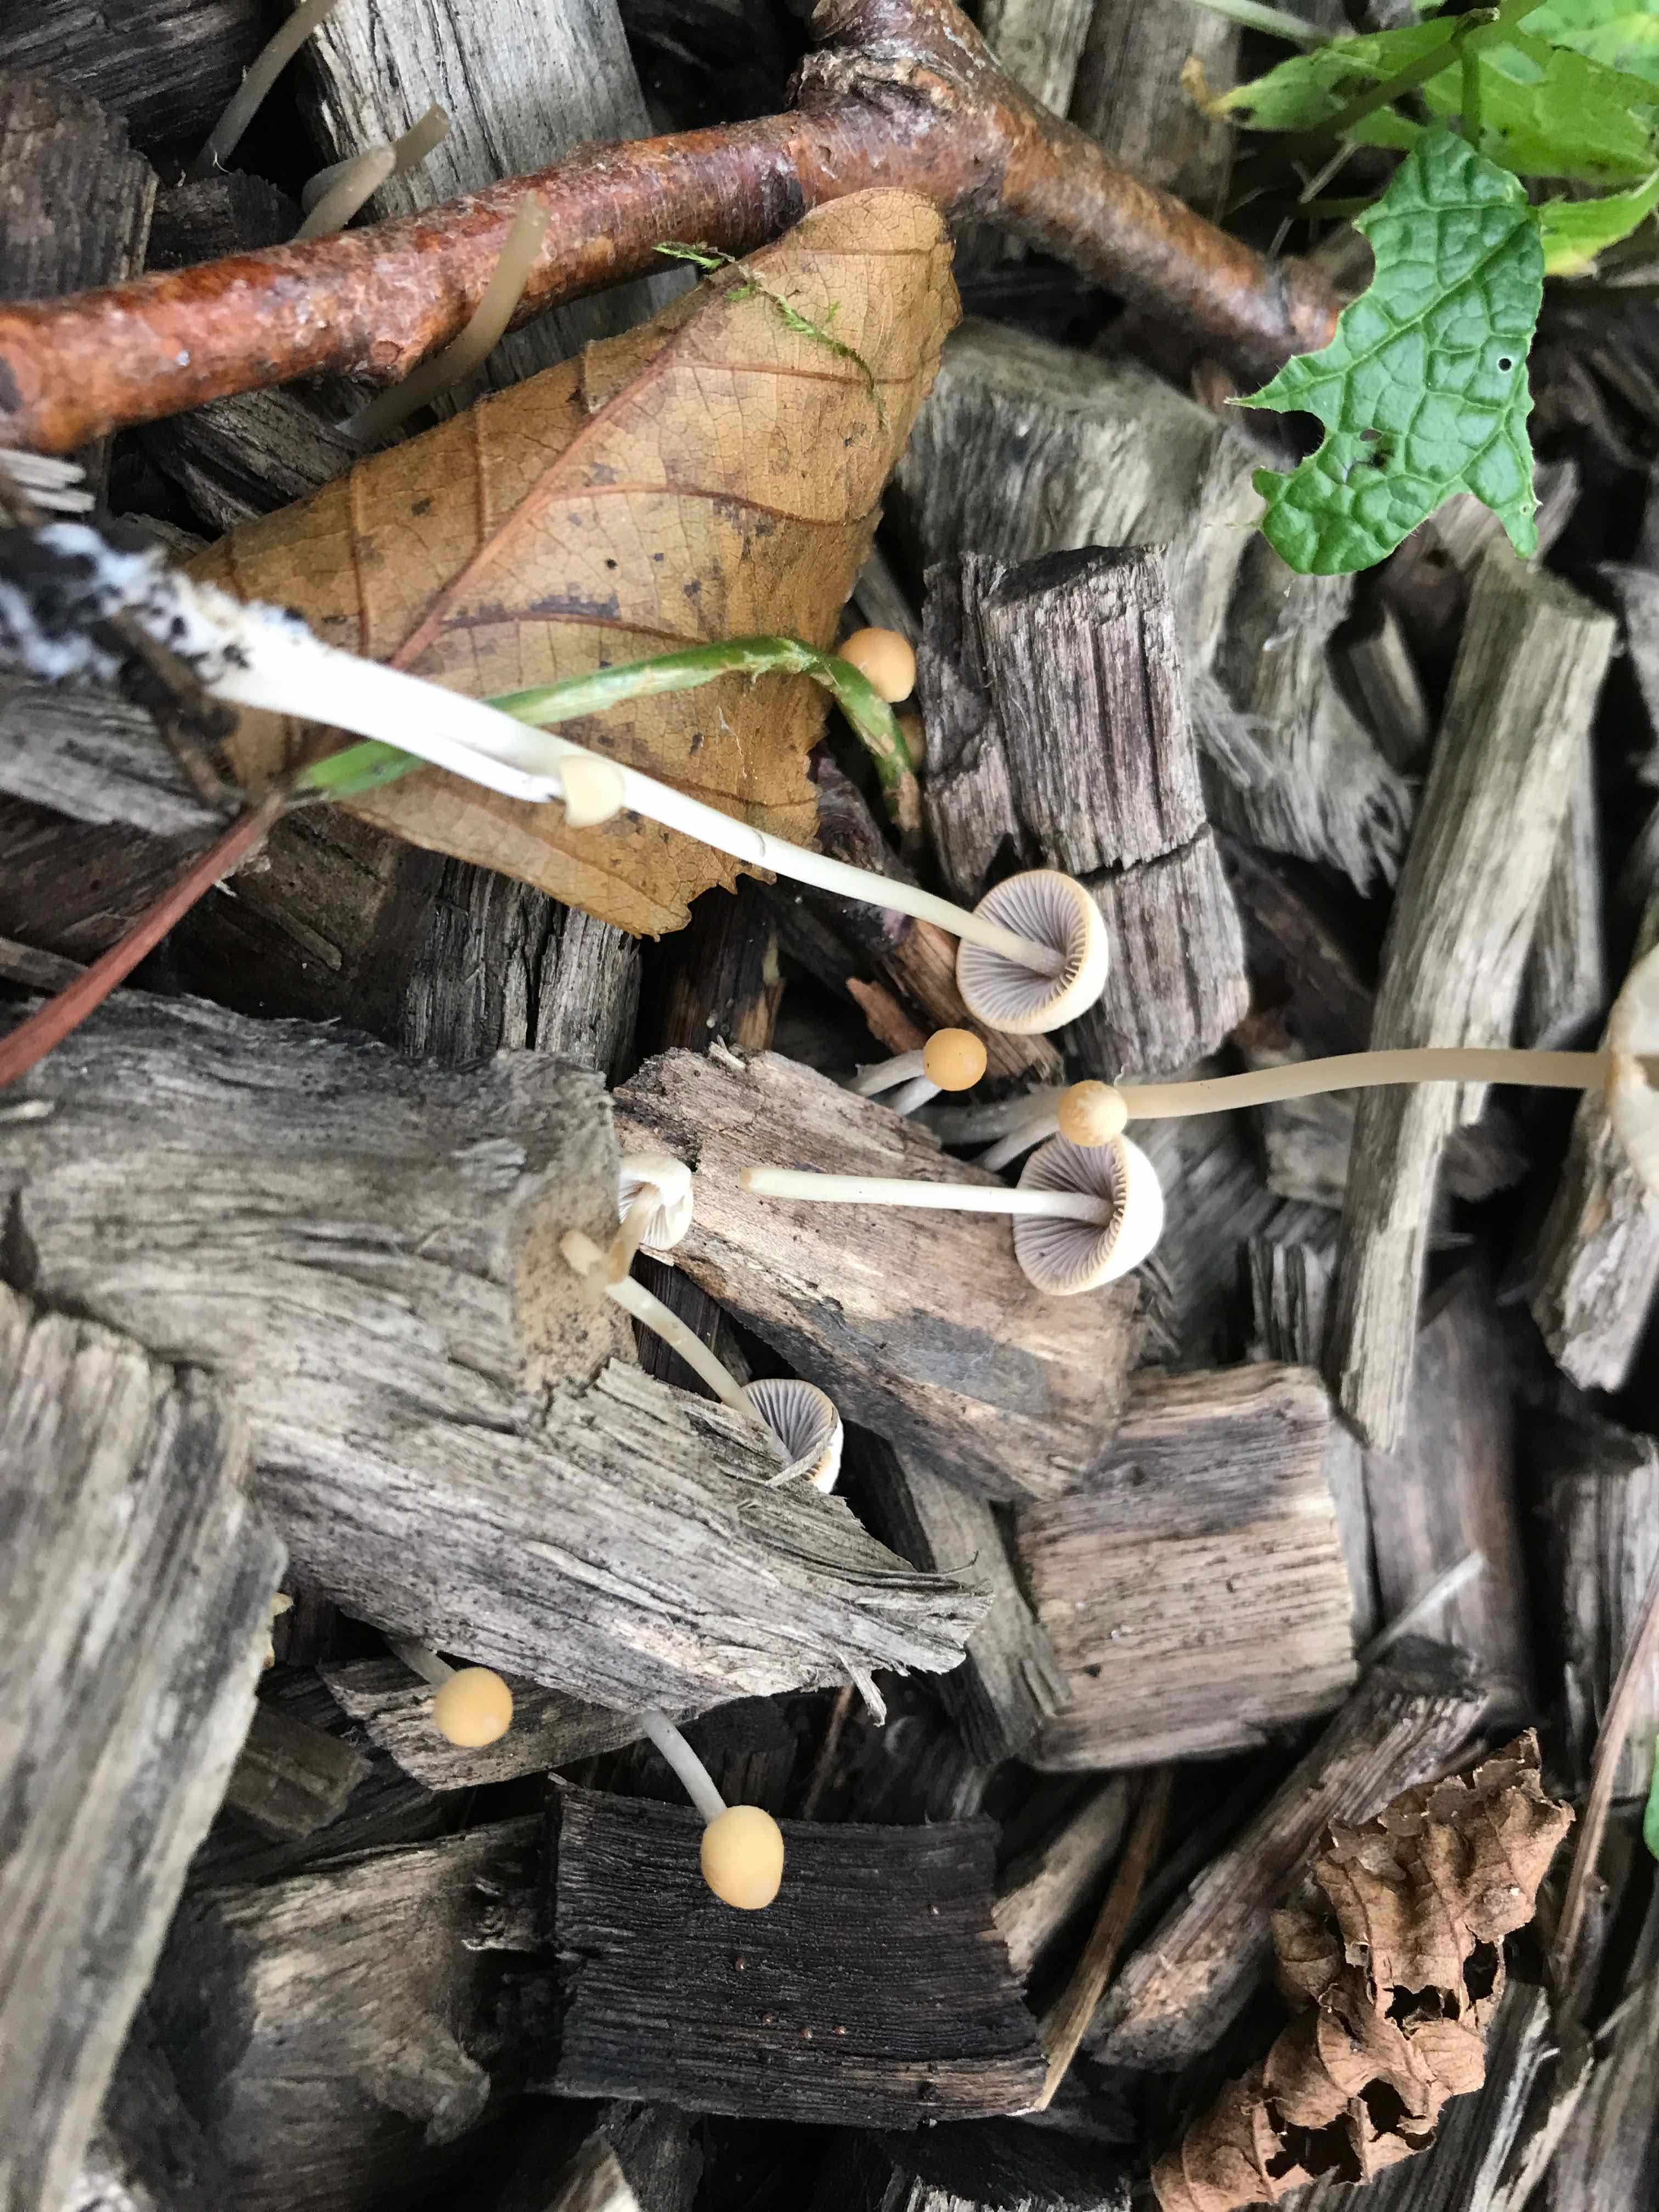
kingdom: Fungi
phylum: Basidiomycota
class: Agaricomycetes
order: Agaricales
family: Psathyrellaceae
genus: Psathyrella
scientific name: Psathyrella
